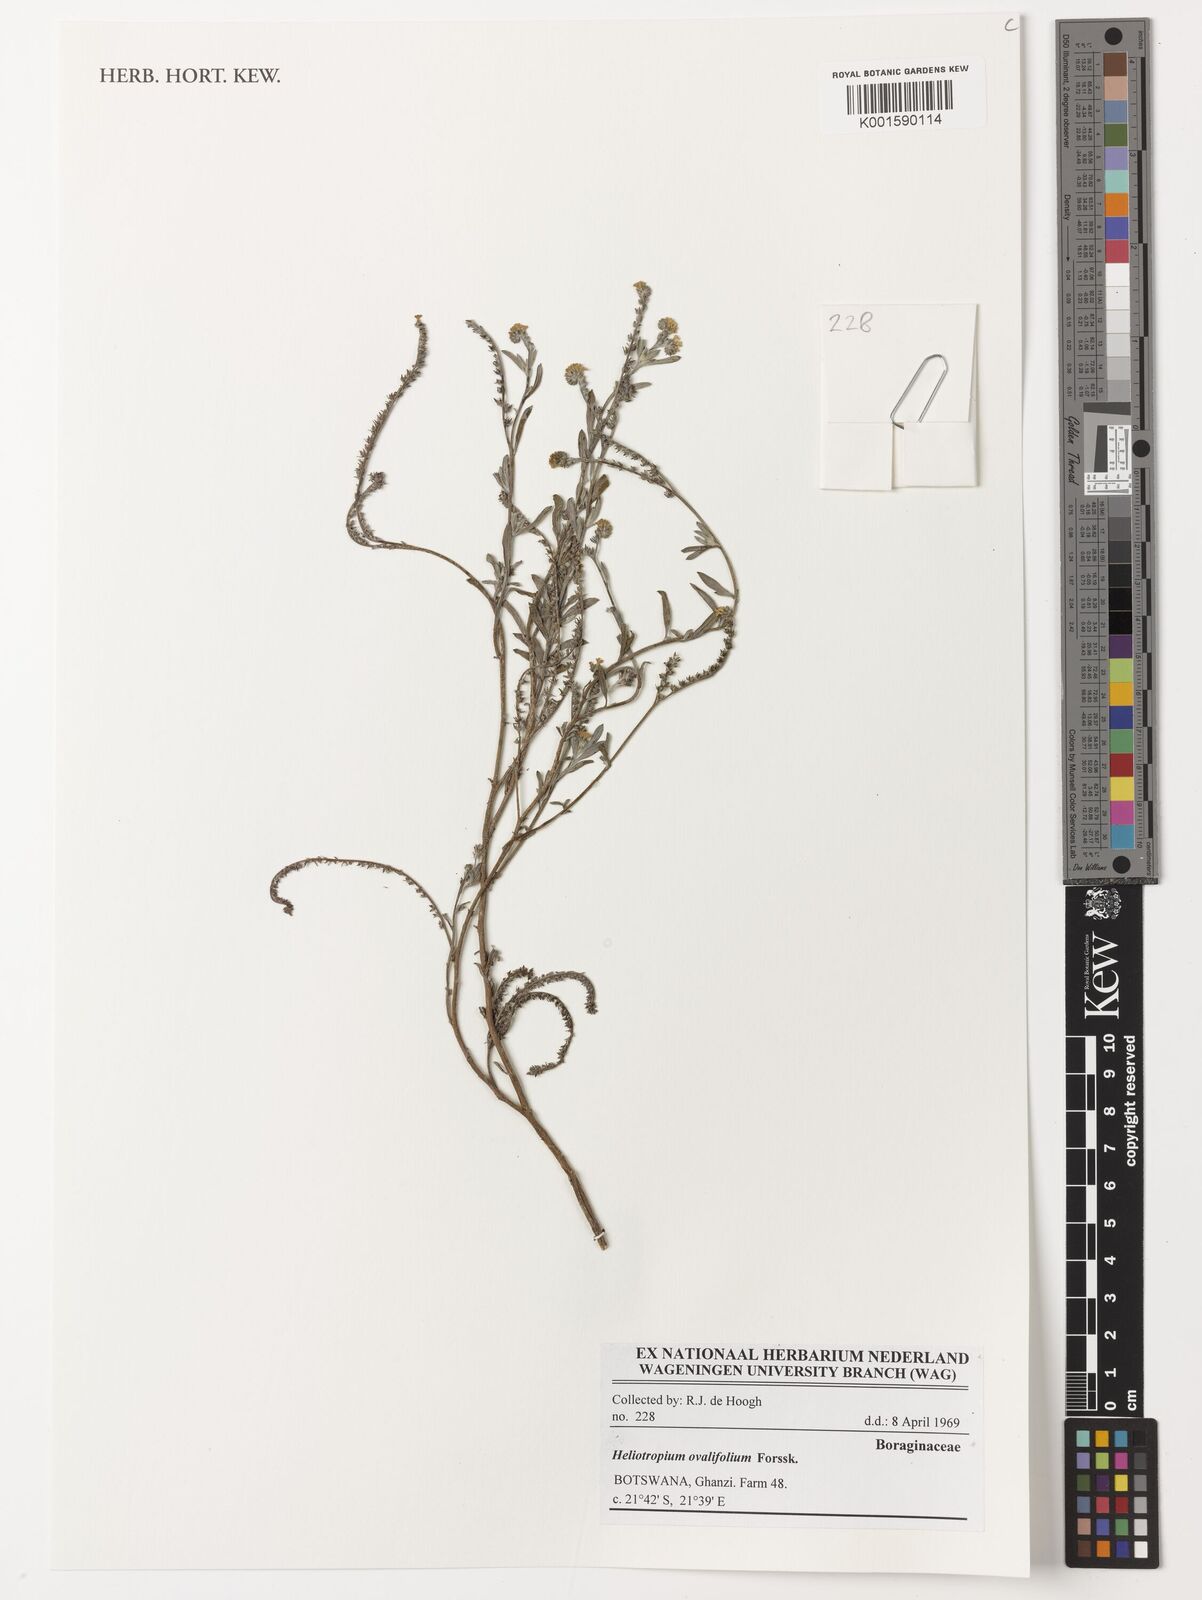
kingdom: Plantae
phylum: Tracheophyta
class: Magnoliopsida
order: Boraginales
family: Heliotropiaceae
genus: Euploca
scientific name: Euploca ovalifolia
